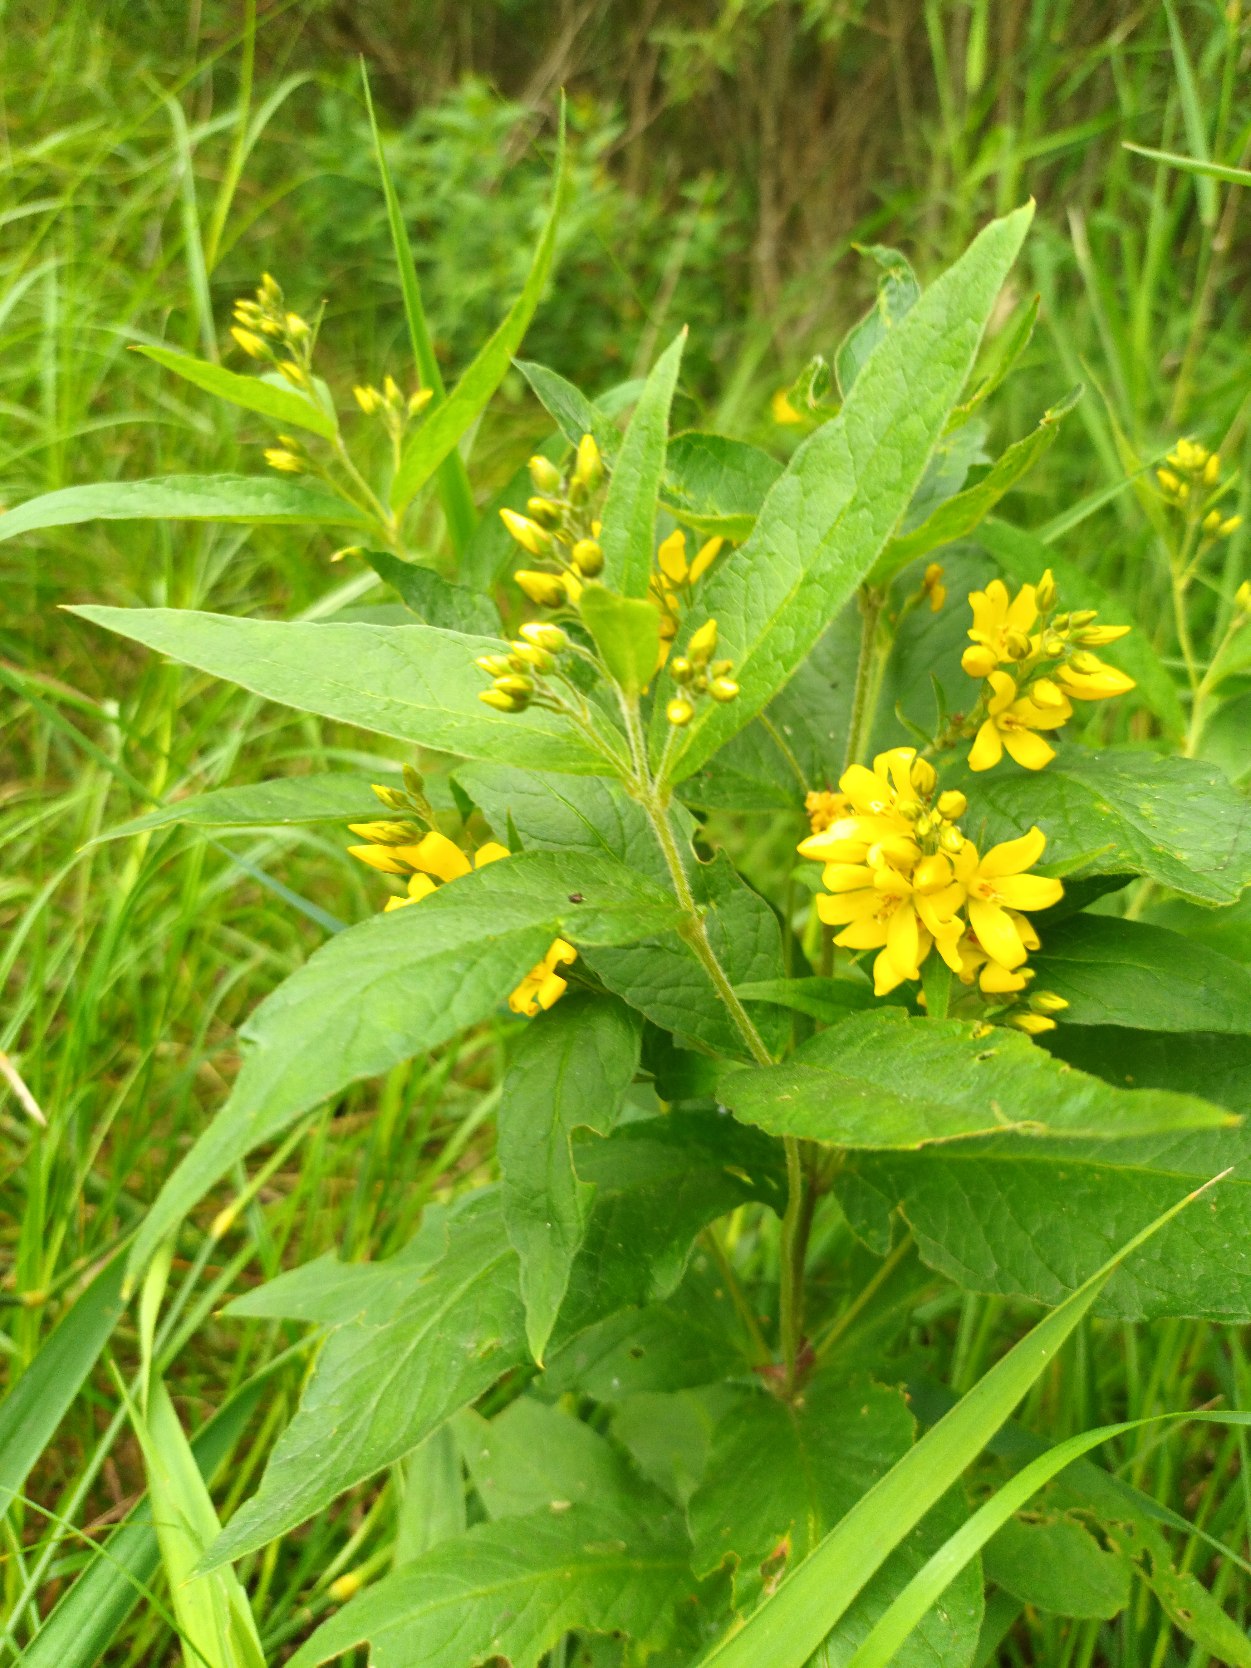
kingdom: Plantae
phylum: Tracheophyta
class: Magnoliopsida
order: Ericales
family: Primulaceae
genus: Lysimachia
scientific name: Lysimachia vulgaris
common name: Almindelig fredløs
